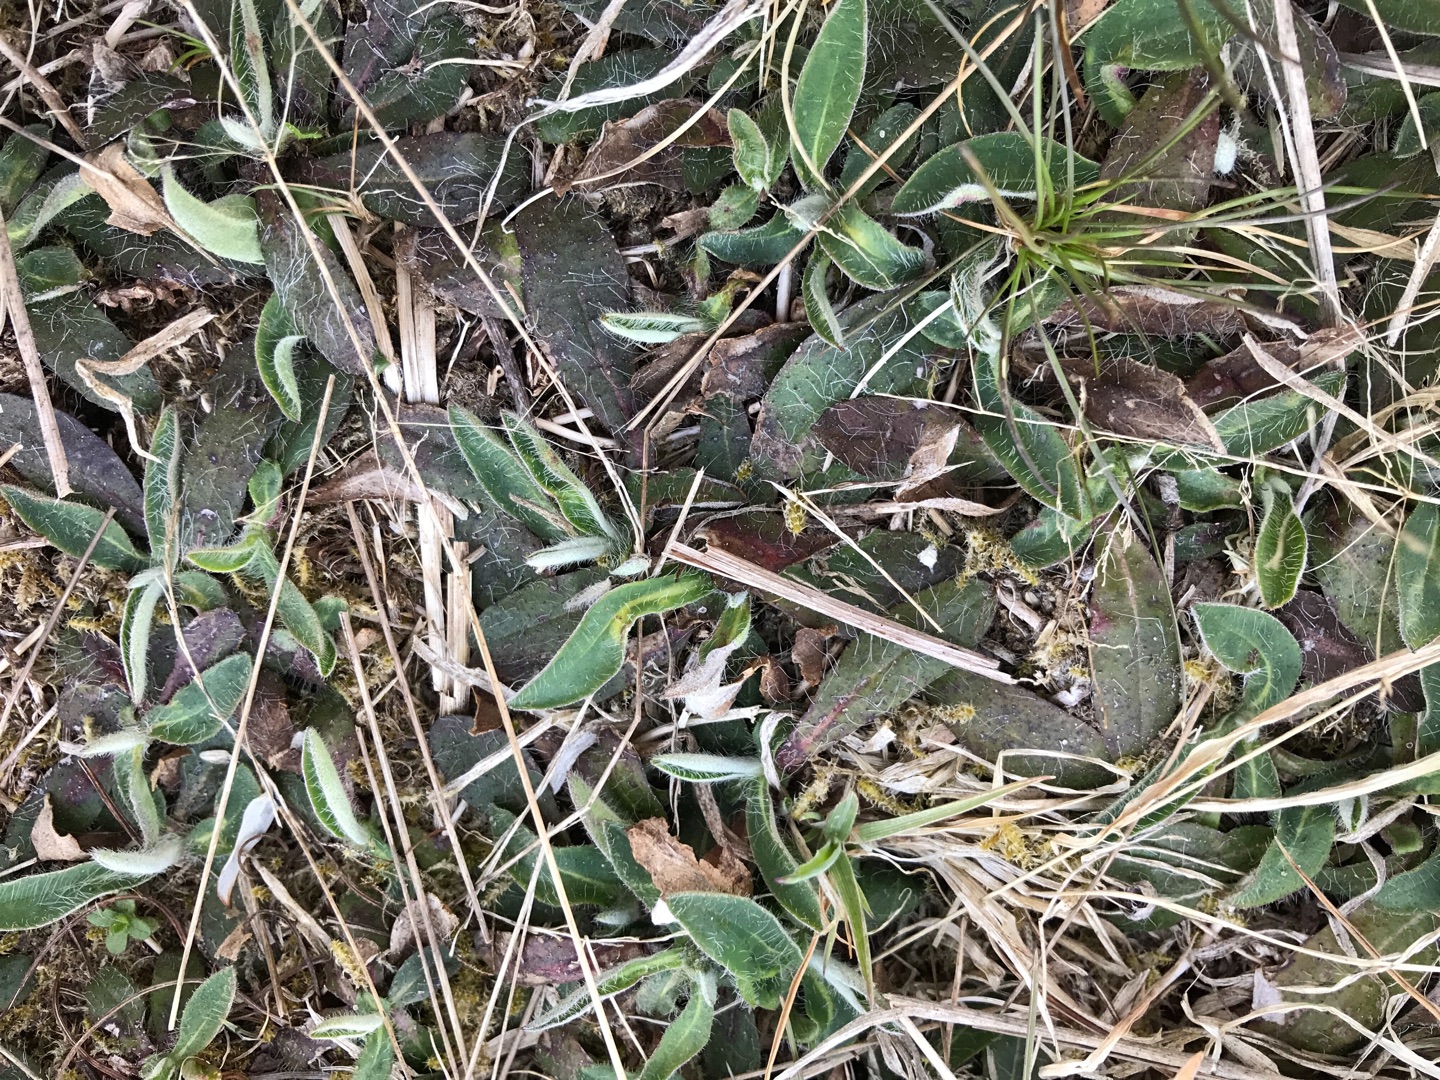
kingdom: Plantae
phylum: Tracheophyta
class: Magnoliopsida
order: Asterales
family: Asteraceae
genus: Pilosella
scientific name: Pilosella officinarum
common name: Håret høgeurt
